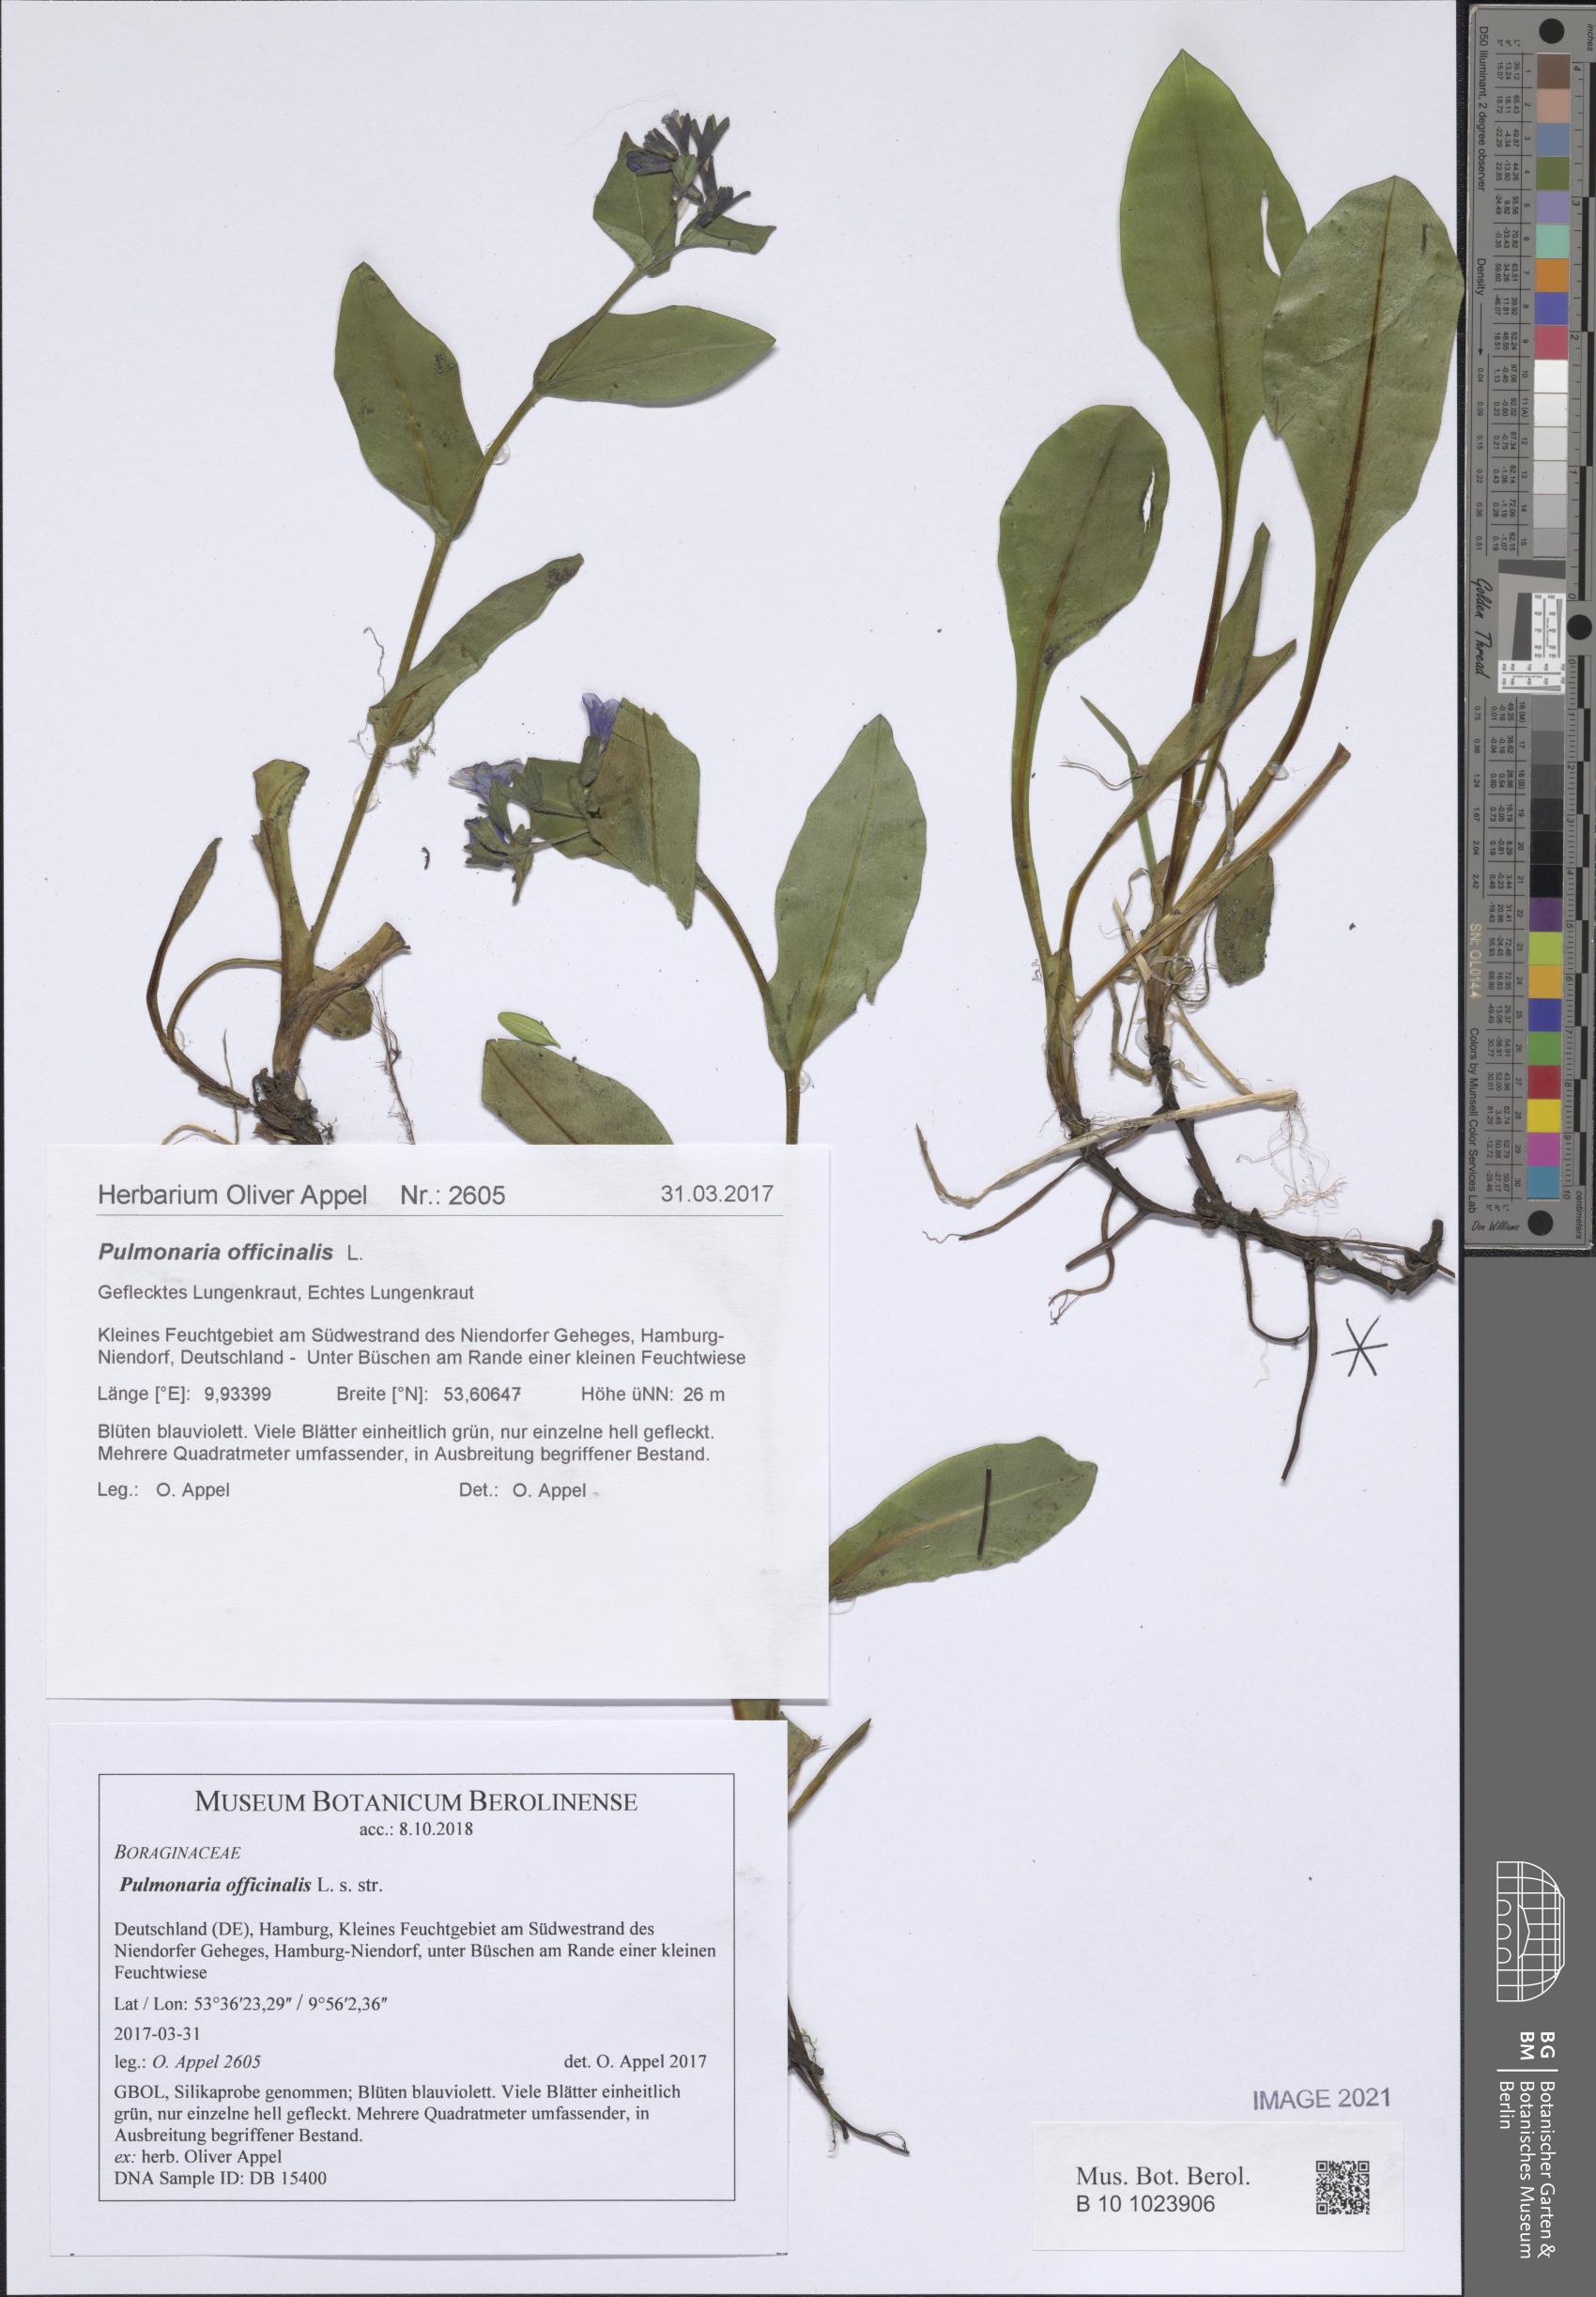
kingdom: Plantae
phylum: Tracheophyta
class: Magnoliopsida
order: Boraginales
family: Boraginaceae
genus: Pulmonaria
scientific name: Pulmonaria officinalis
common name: Lungwort
